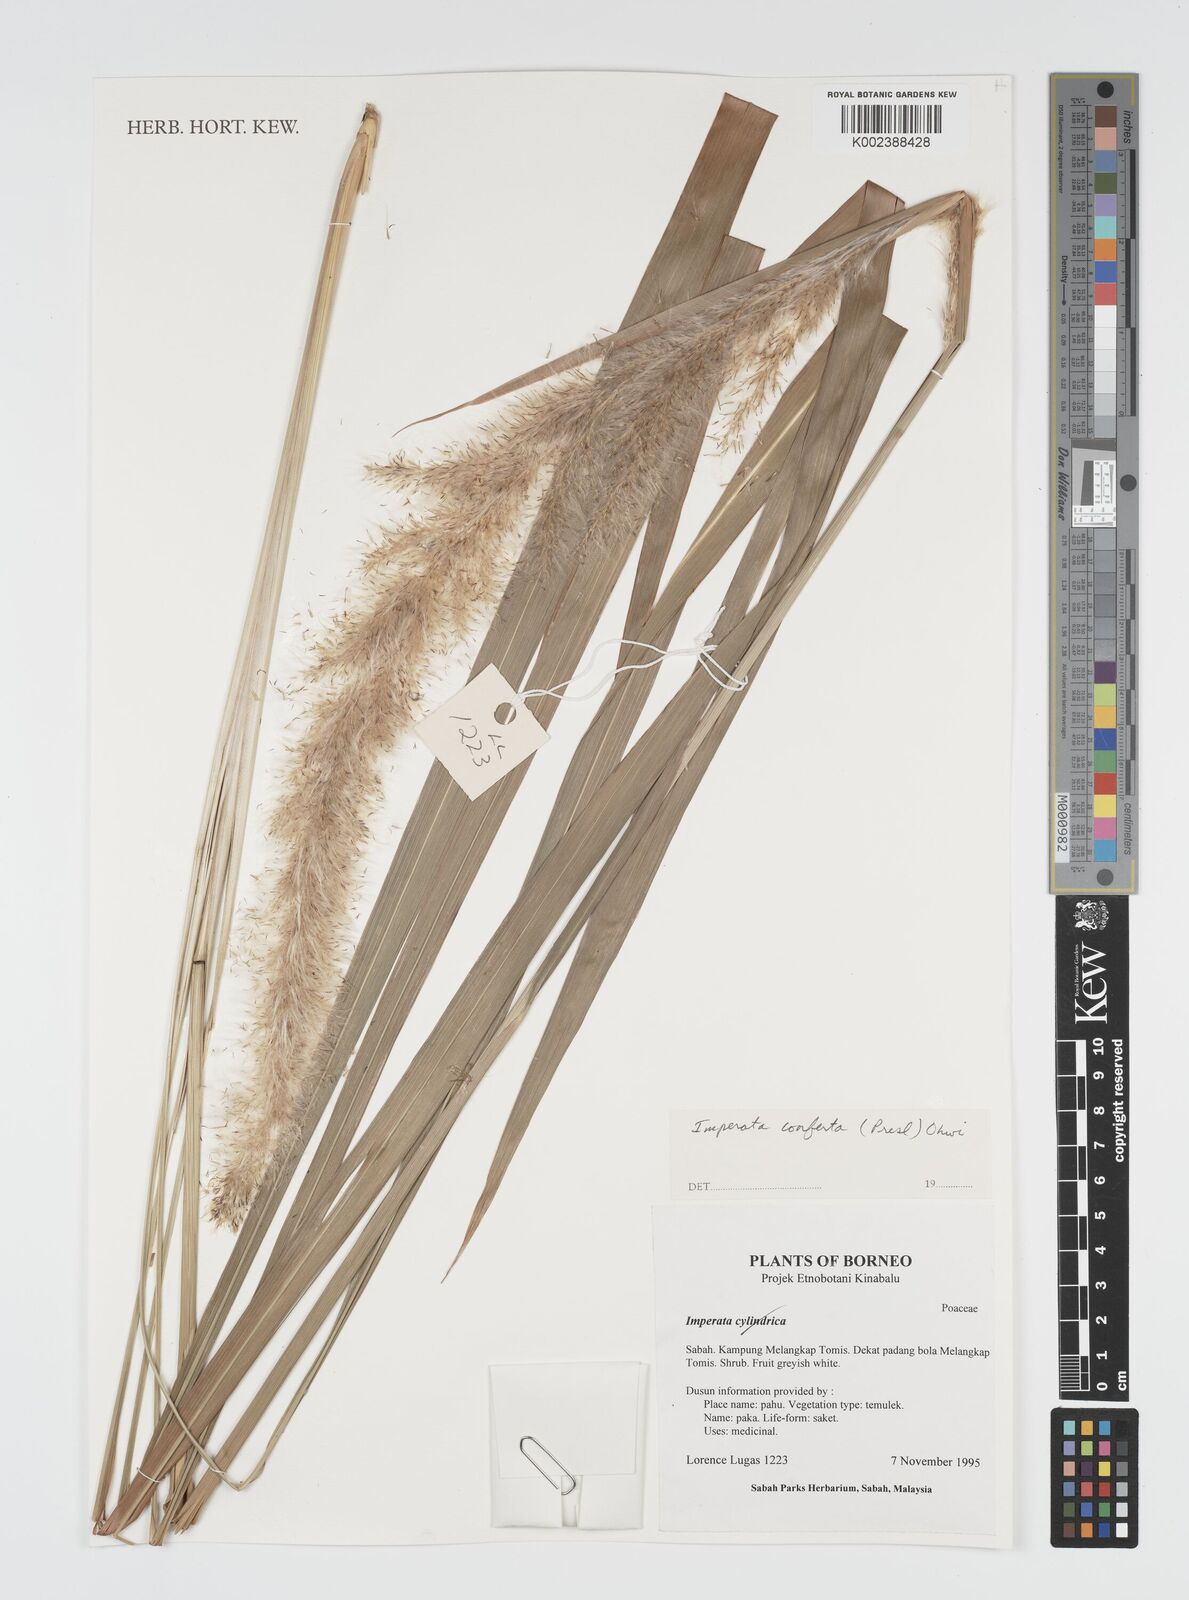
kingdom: Plantae
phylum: Tracheophyta
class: Liliopsida
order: Poales
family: Poaceae
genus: Imperata
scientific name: Imperata conferta
